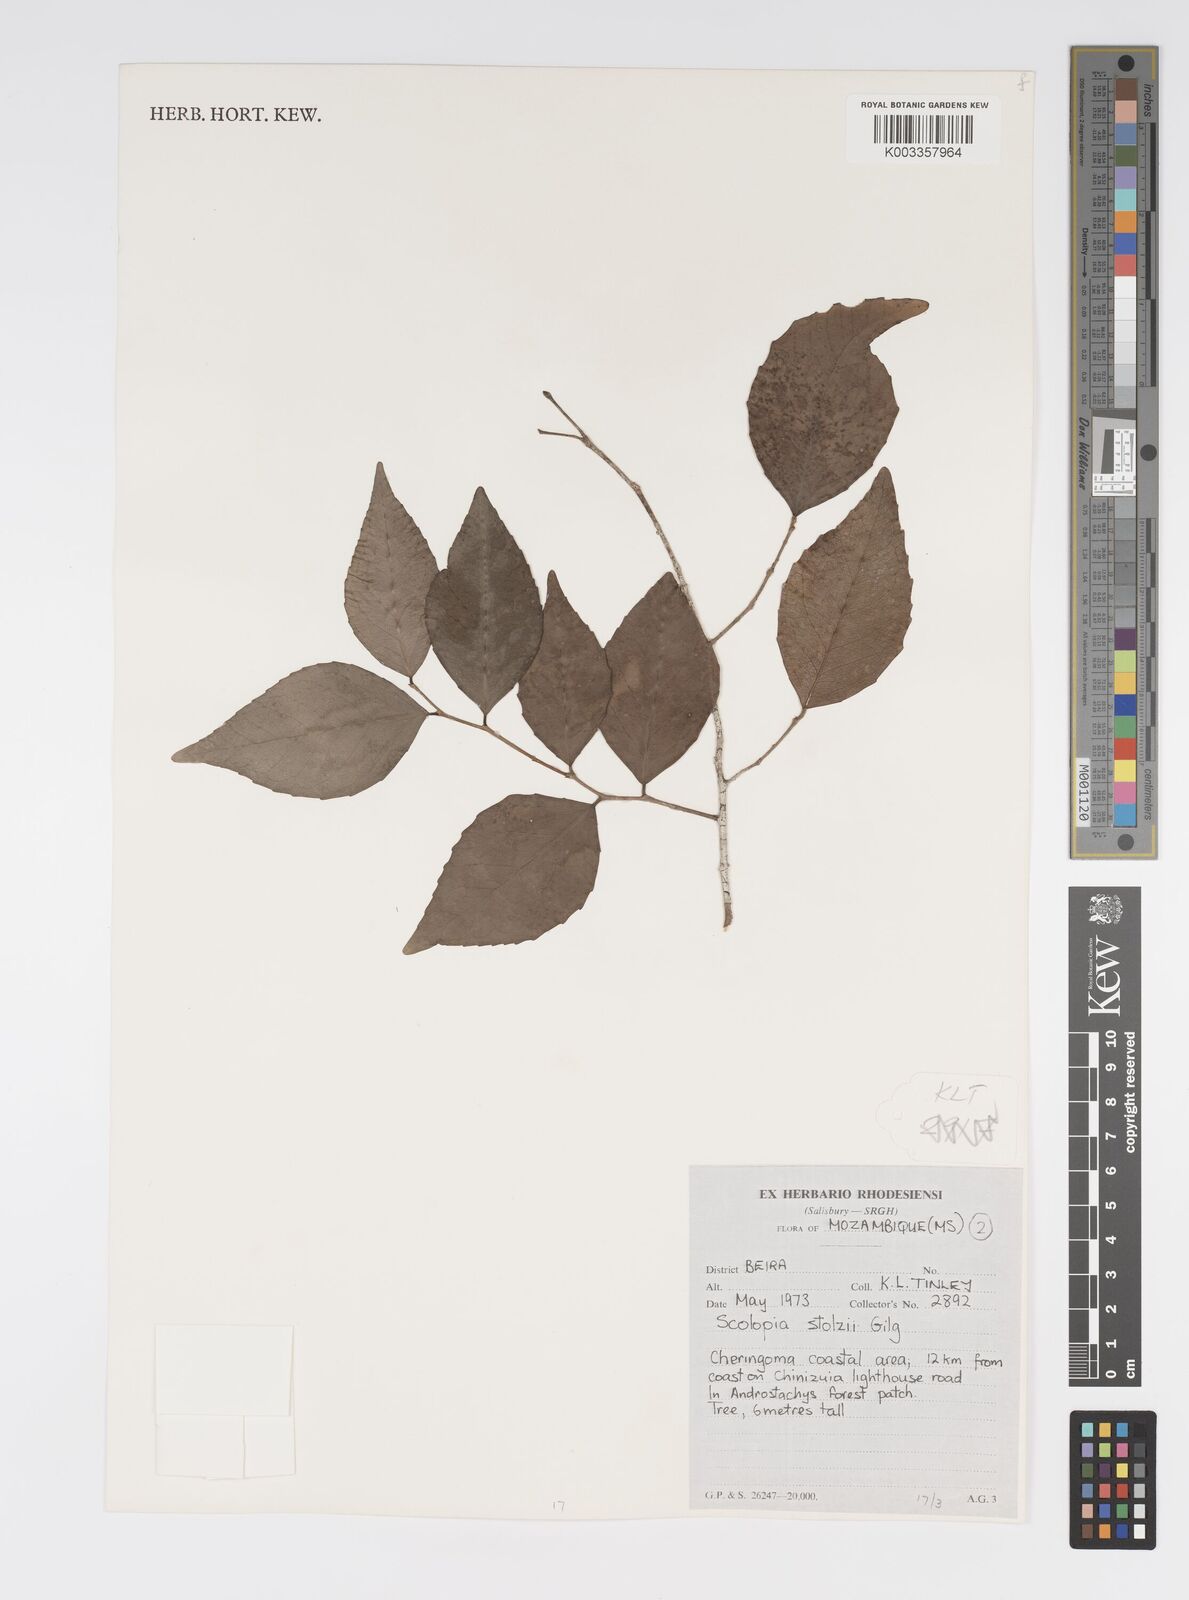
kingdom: Plantae
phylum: Tracheophyta
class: Magnoliopsida
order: Malpighiales
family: Salicaceae
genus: Scolopia
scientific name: Scolopia stolzii
